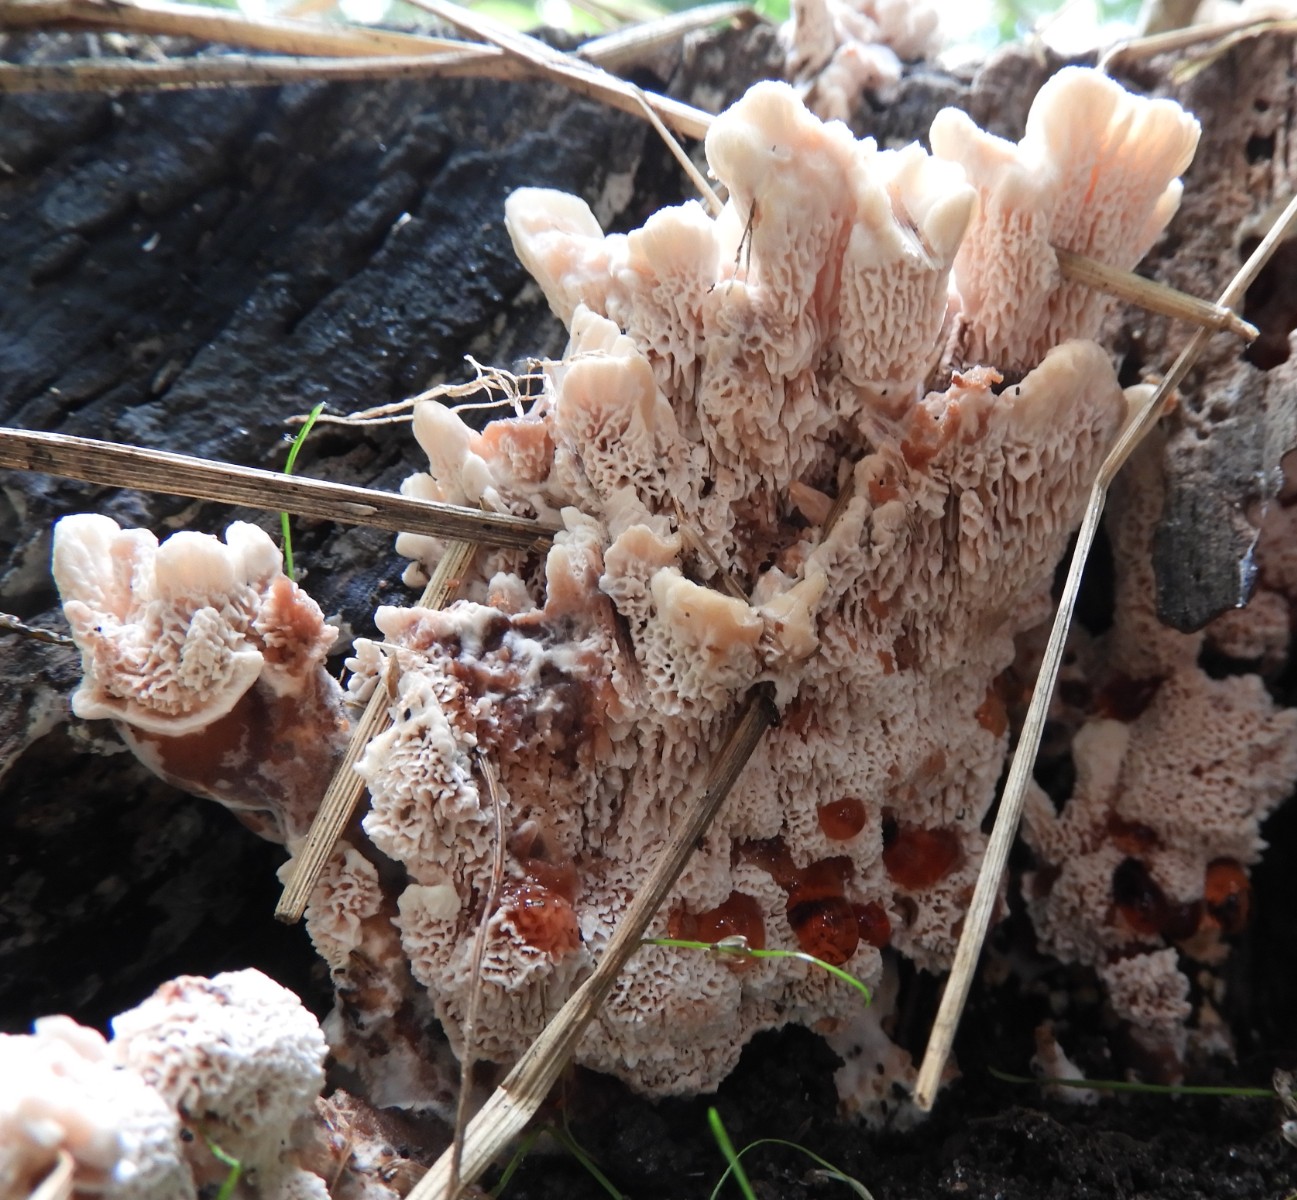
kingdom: Fungi
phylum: Basidiomycota
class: Agaricomycetes
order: Polyporales
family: Podoscyphaceae
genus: Abortiporus
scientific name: Abortiporus biennis
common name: rødmende pjalteporesvamp
